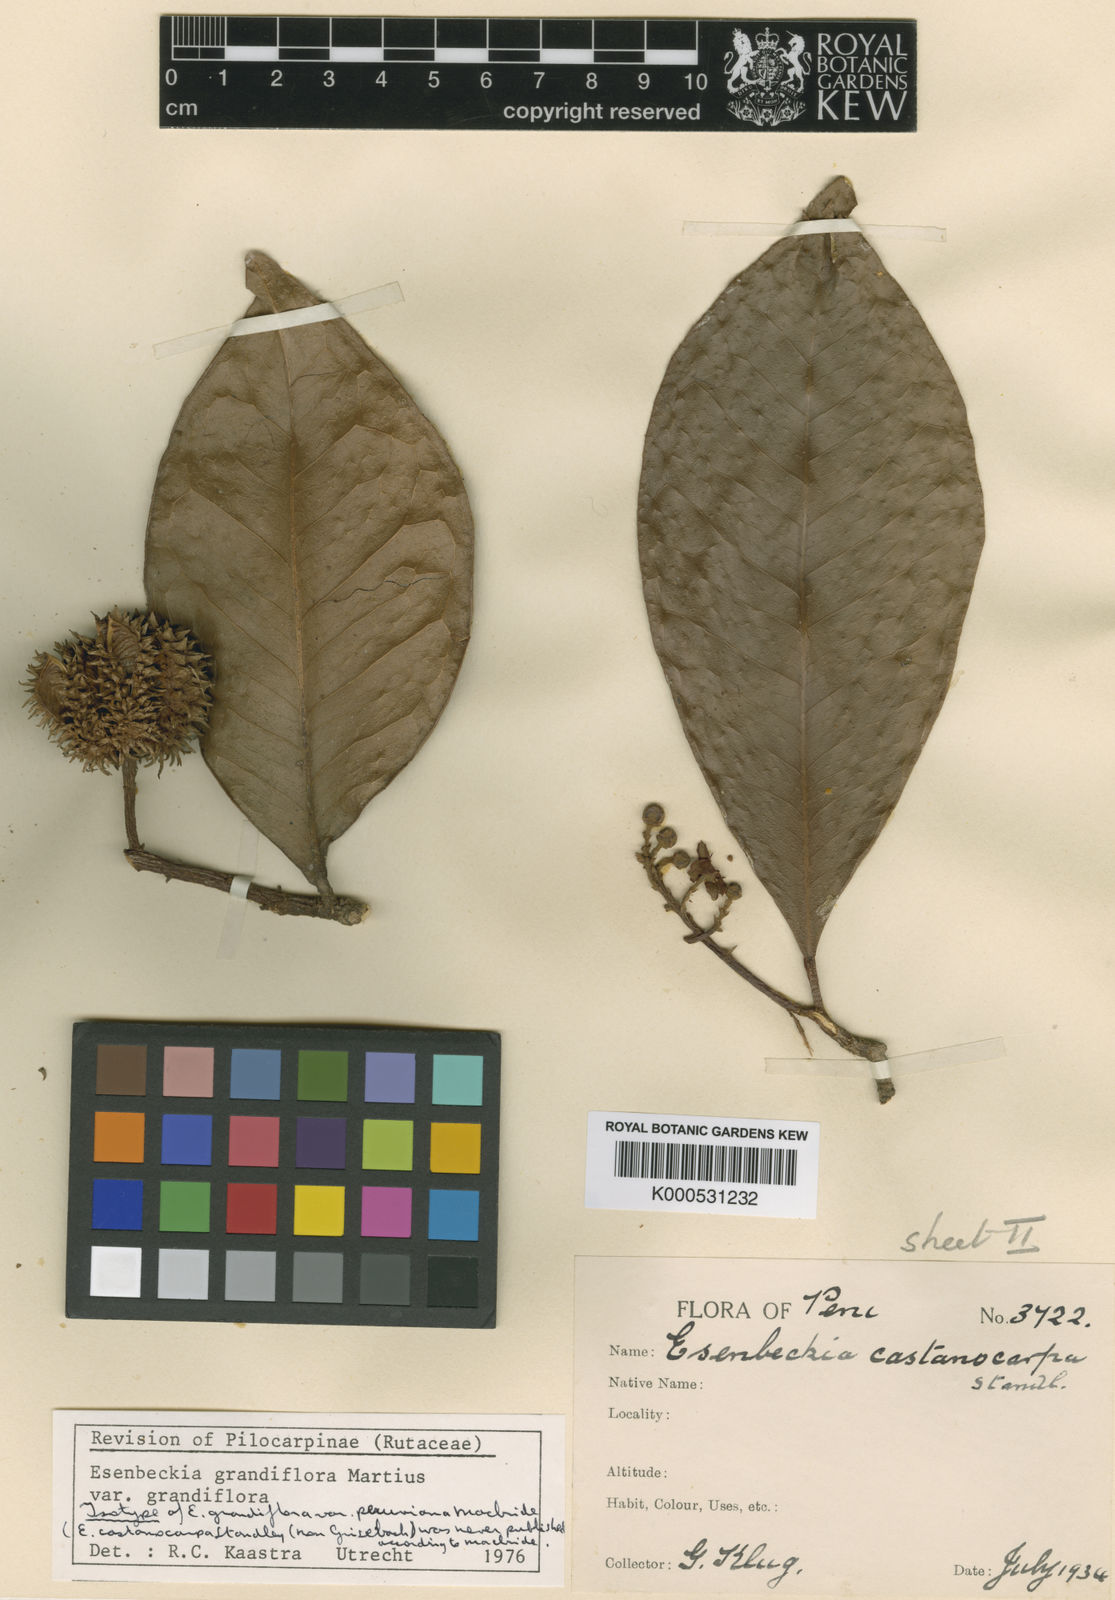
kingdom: Plantae
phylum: Tracheophyta
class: Magnoliopsida
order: Sapindales
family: Rutaceae
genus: Esenbeckia
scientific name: Esenbeckia grandiflora
